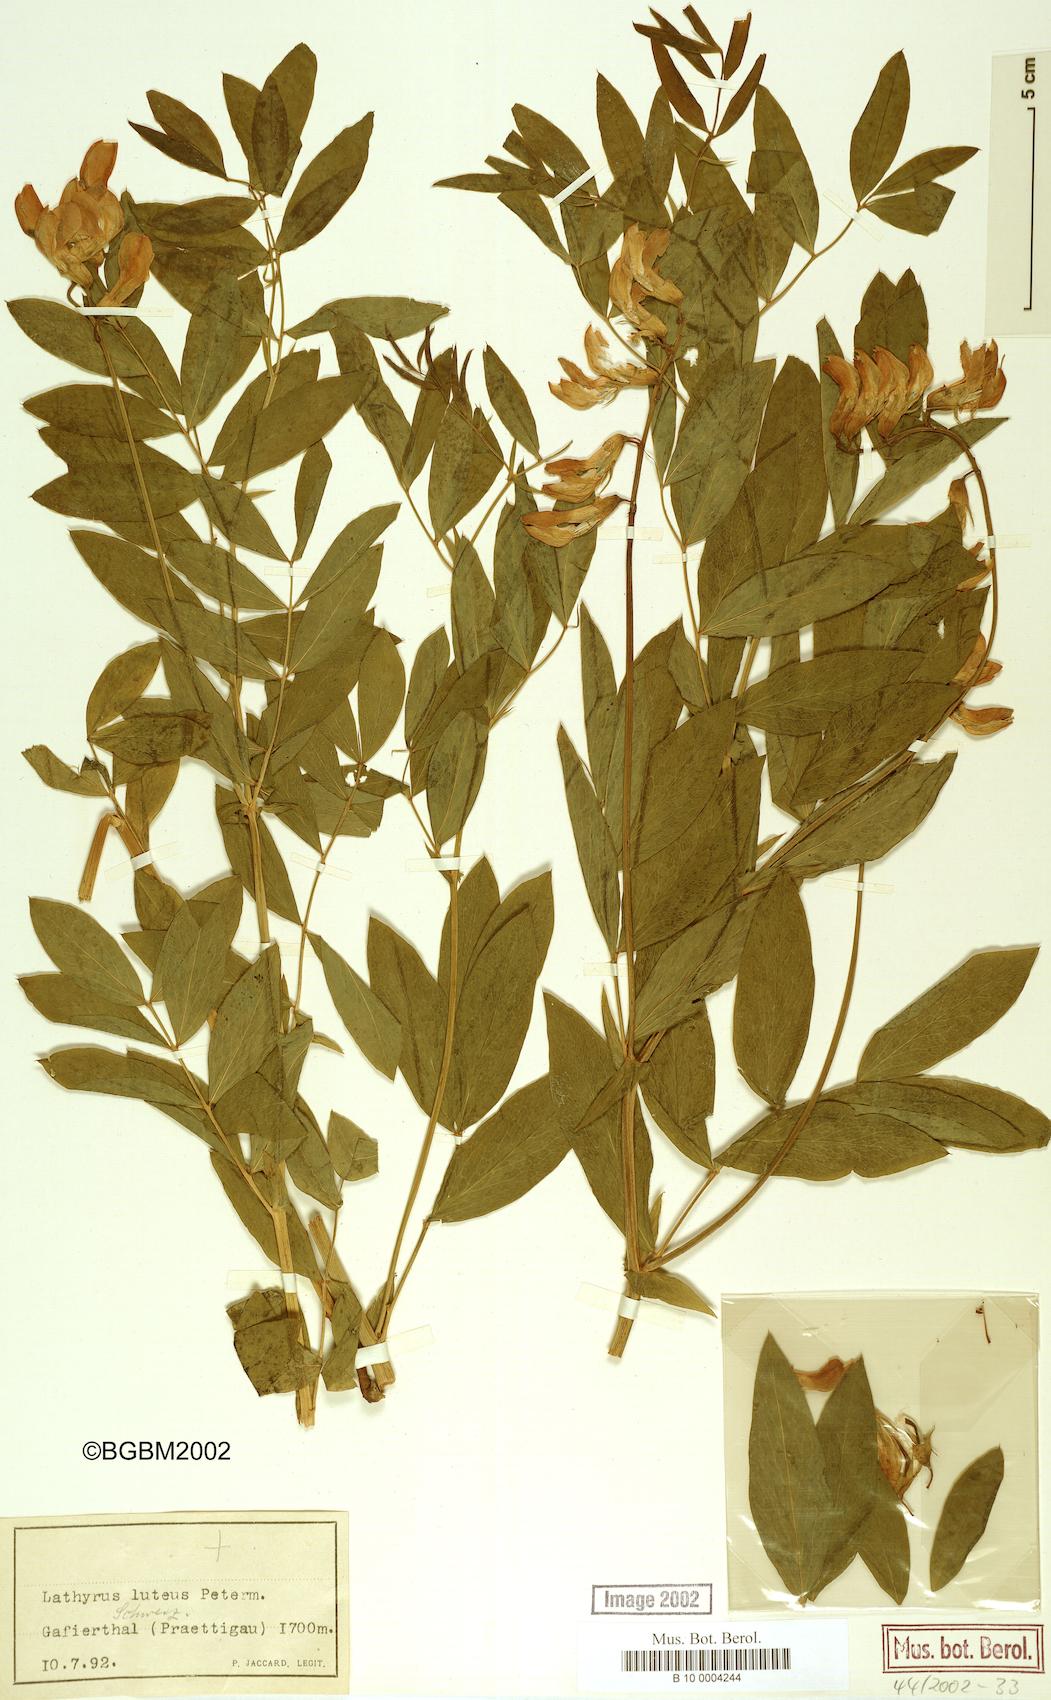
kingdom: Plantae
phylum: Tracheophyta
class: Magnoliopsida
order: Fabales
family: Fabaceae
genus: Lathyrus
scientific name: Lathyrus gmelinii
